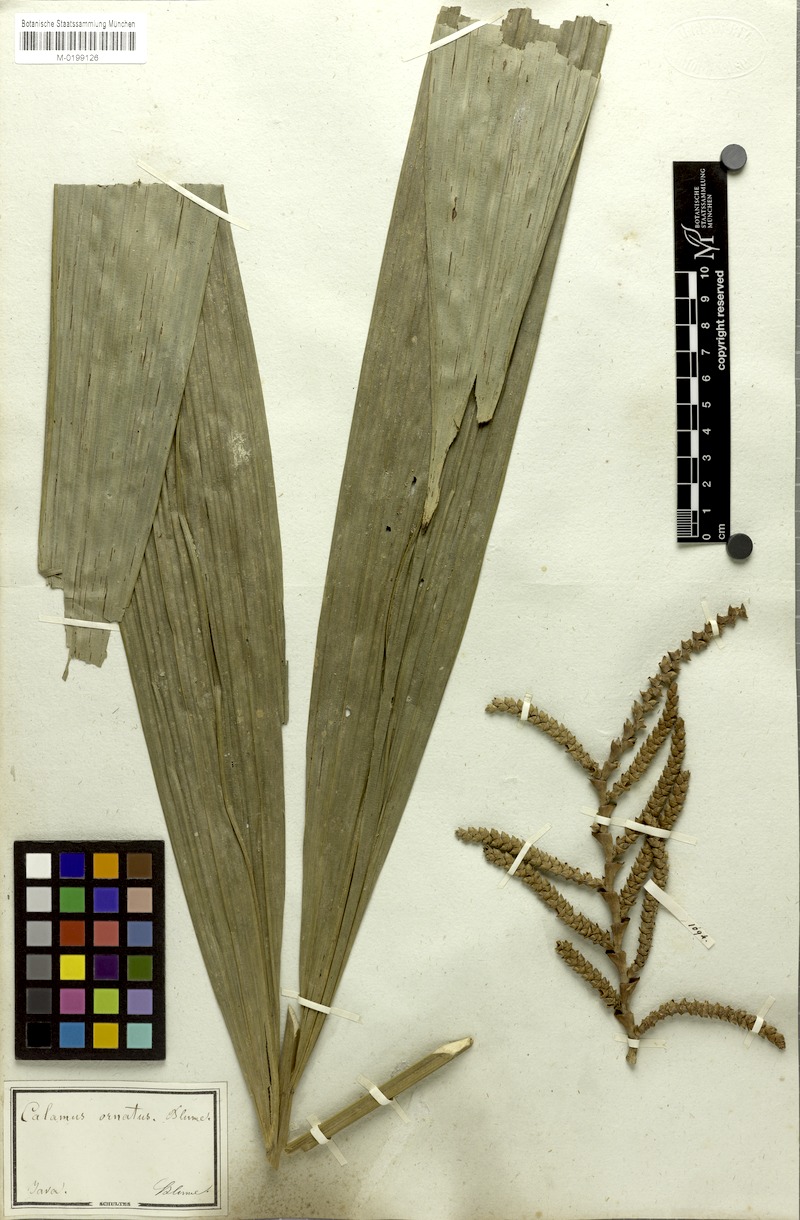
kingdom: Plantae
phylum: Tracheophyta
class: Liliopsida
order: Arecales
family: Arecaceae
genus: Calamus
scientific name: Calamus ornatus
